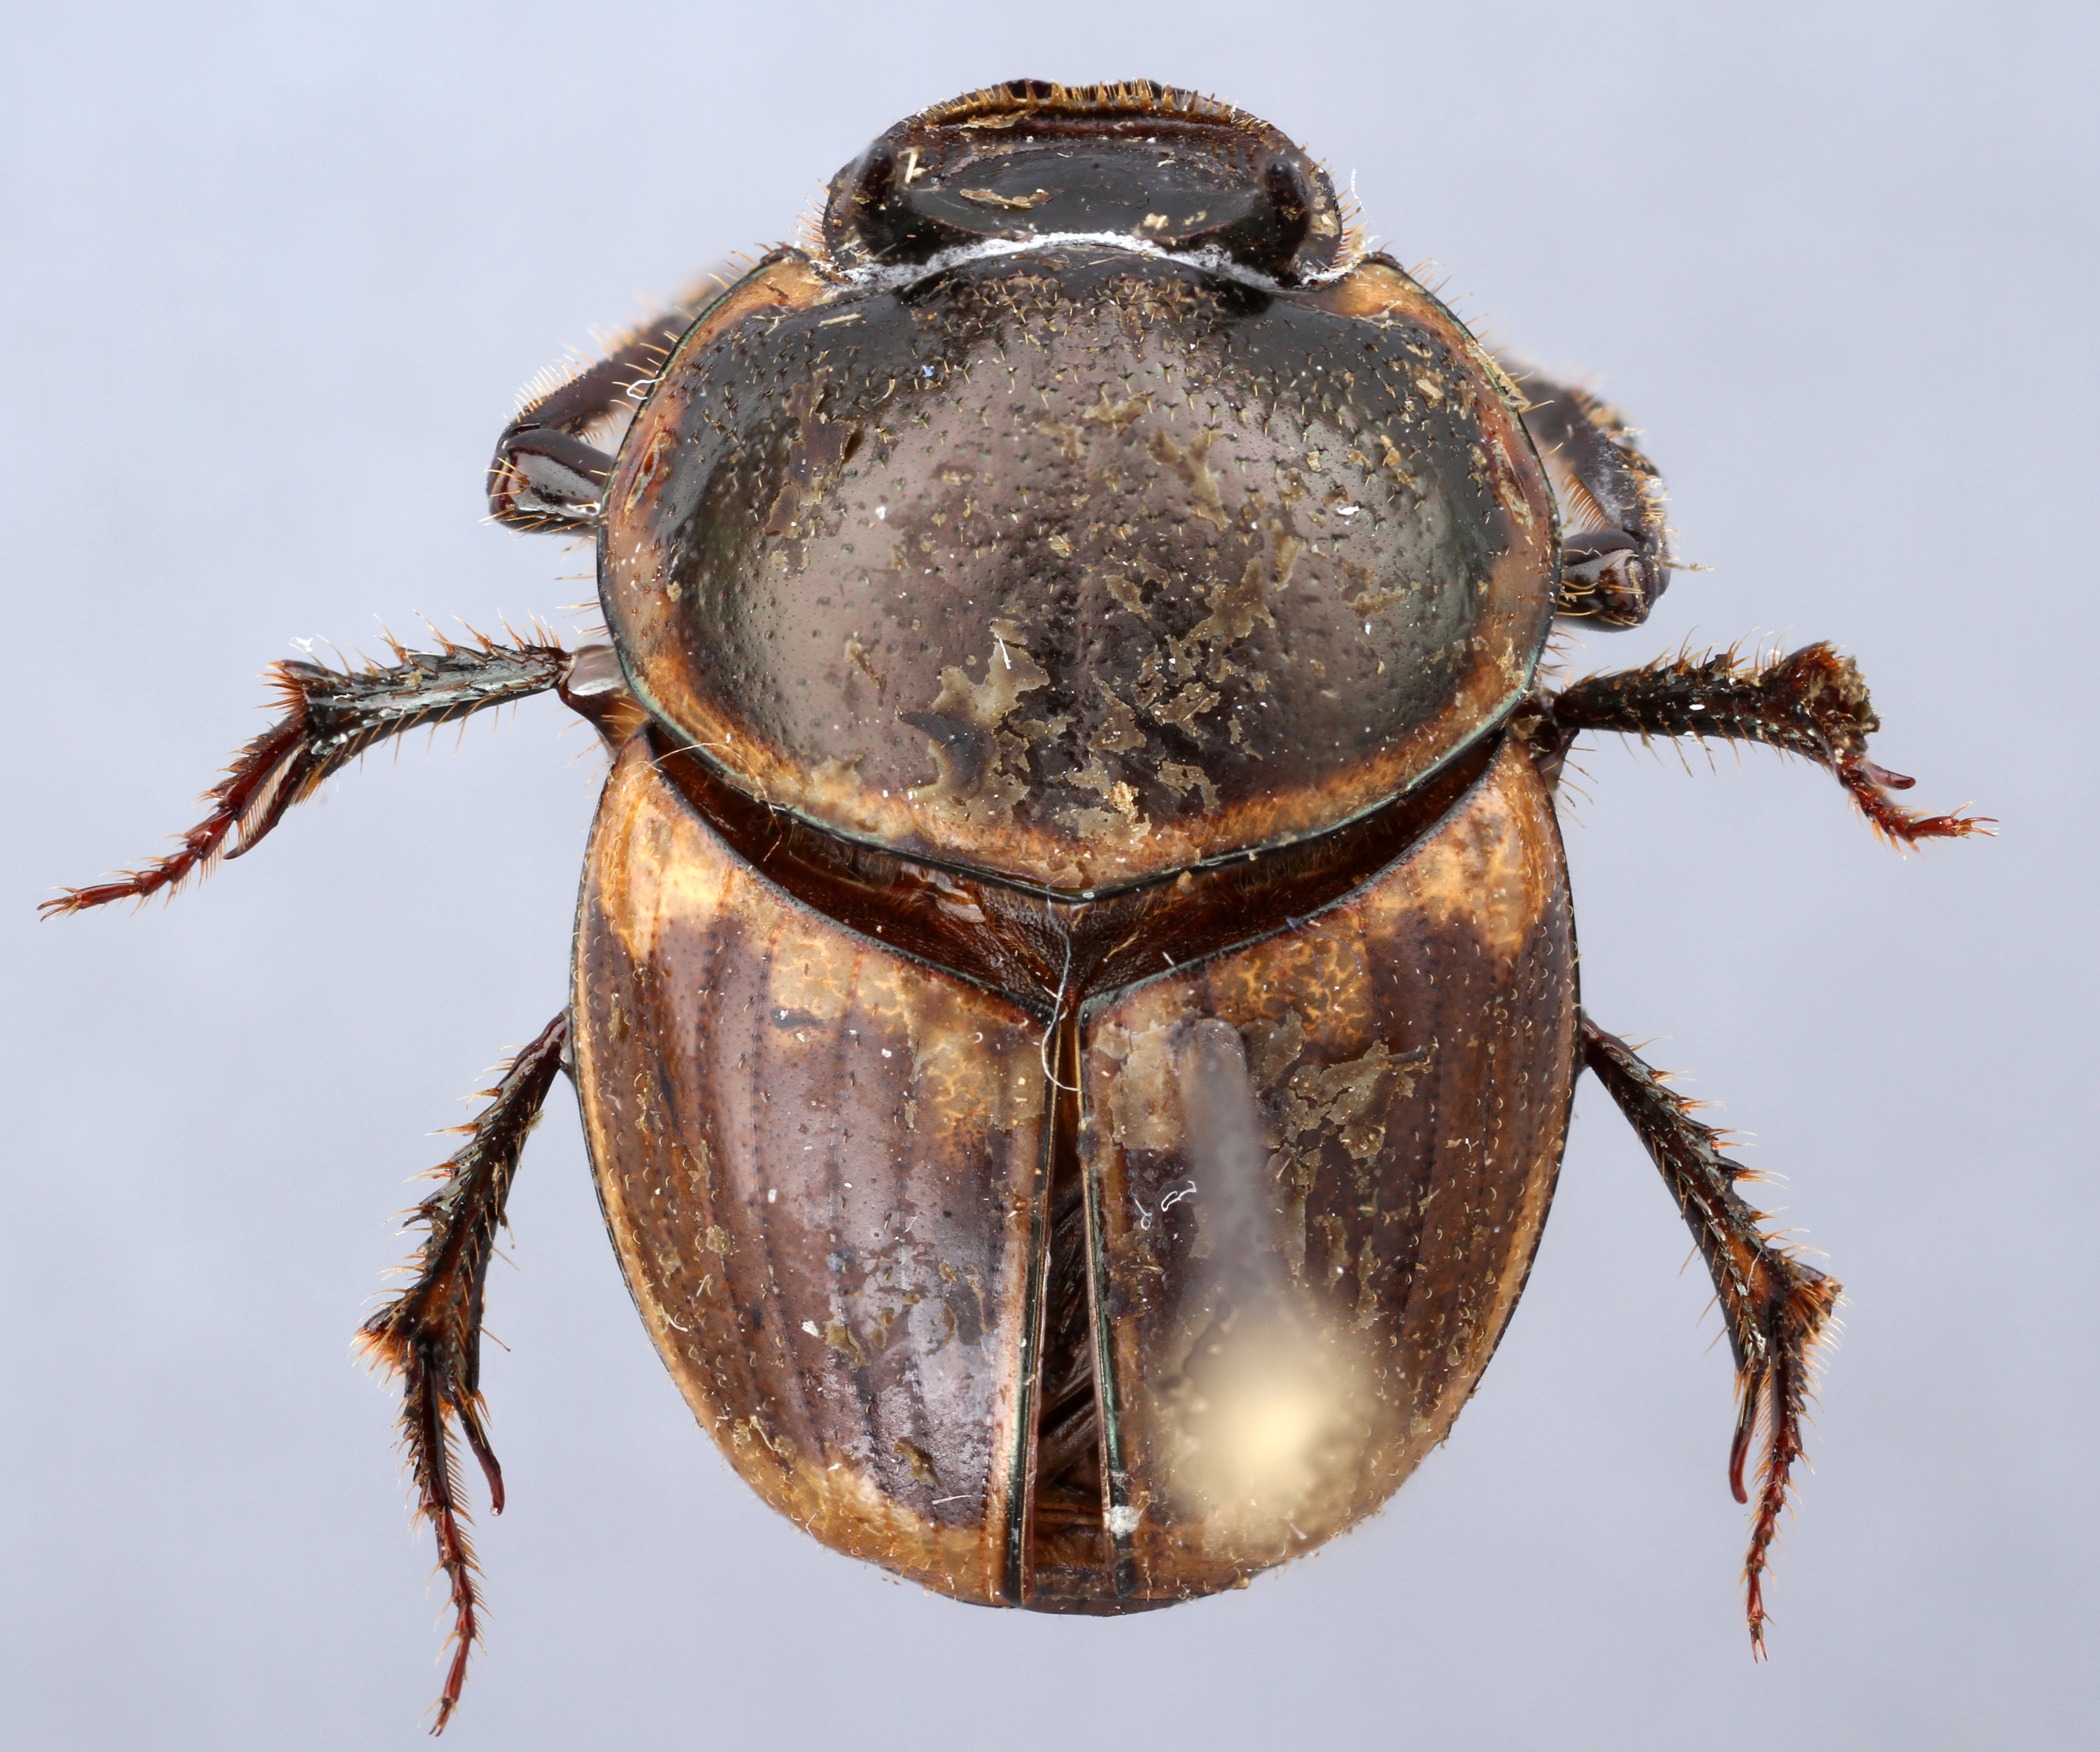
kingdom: Animalia
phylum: Arthropoda
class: Insecta
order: Coleoptera
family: Scarabaeidae
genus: Digitonthophagus
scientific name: Digitonthophagus gazella
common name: Brown dung beetle
